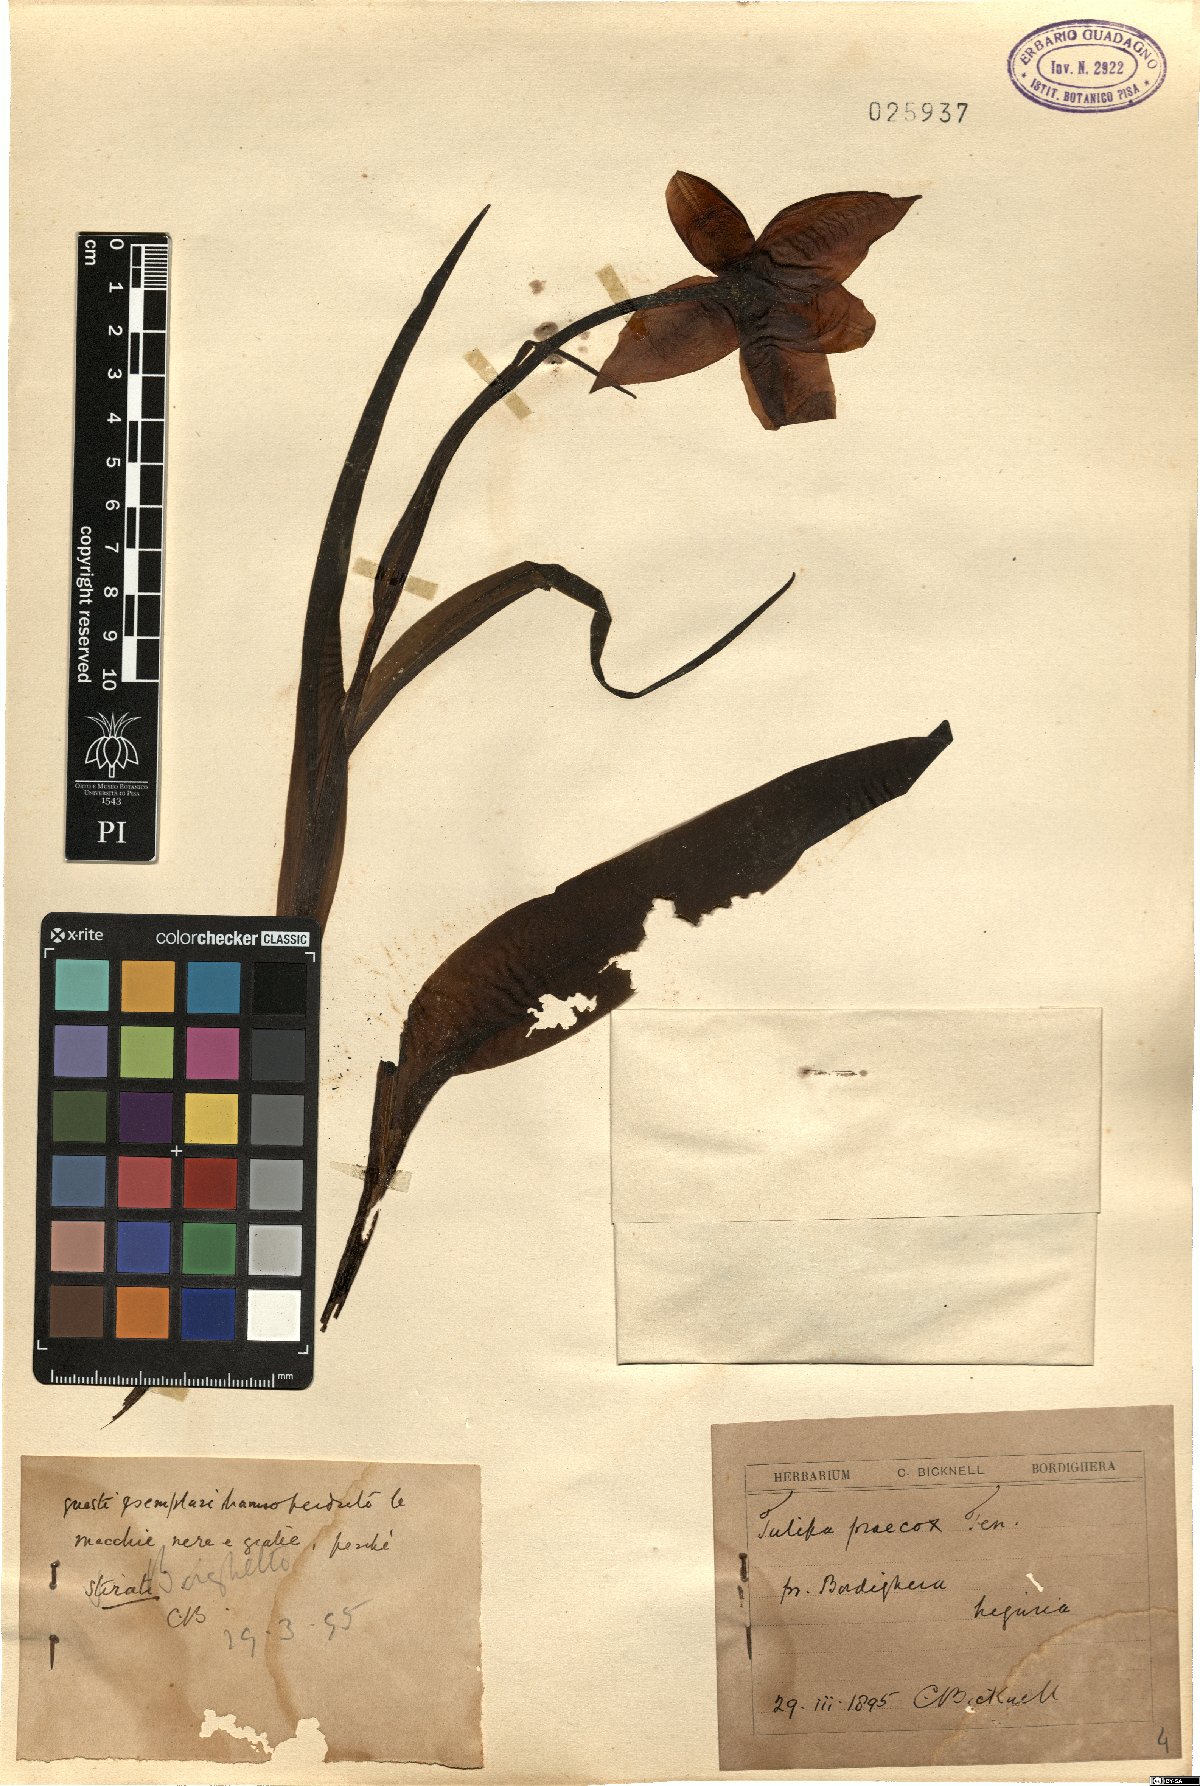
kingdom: Plantae
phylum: Tracheophyta
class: Liliopsida
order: Liliales
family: Liliaceae
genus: Tulipa
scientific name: Tulipa agenensis
